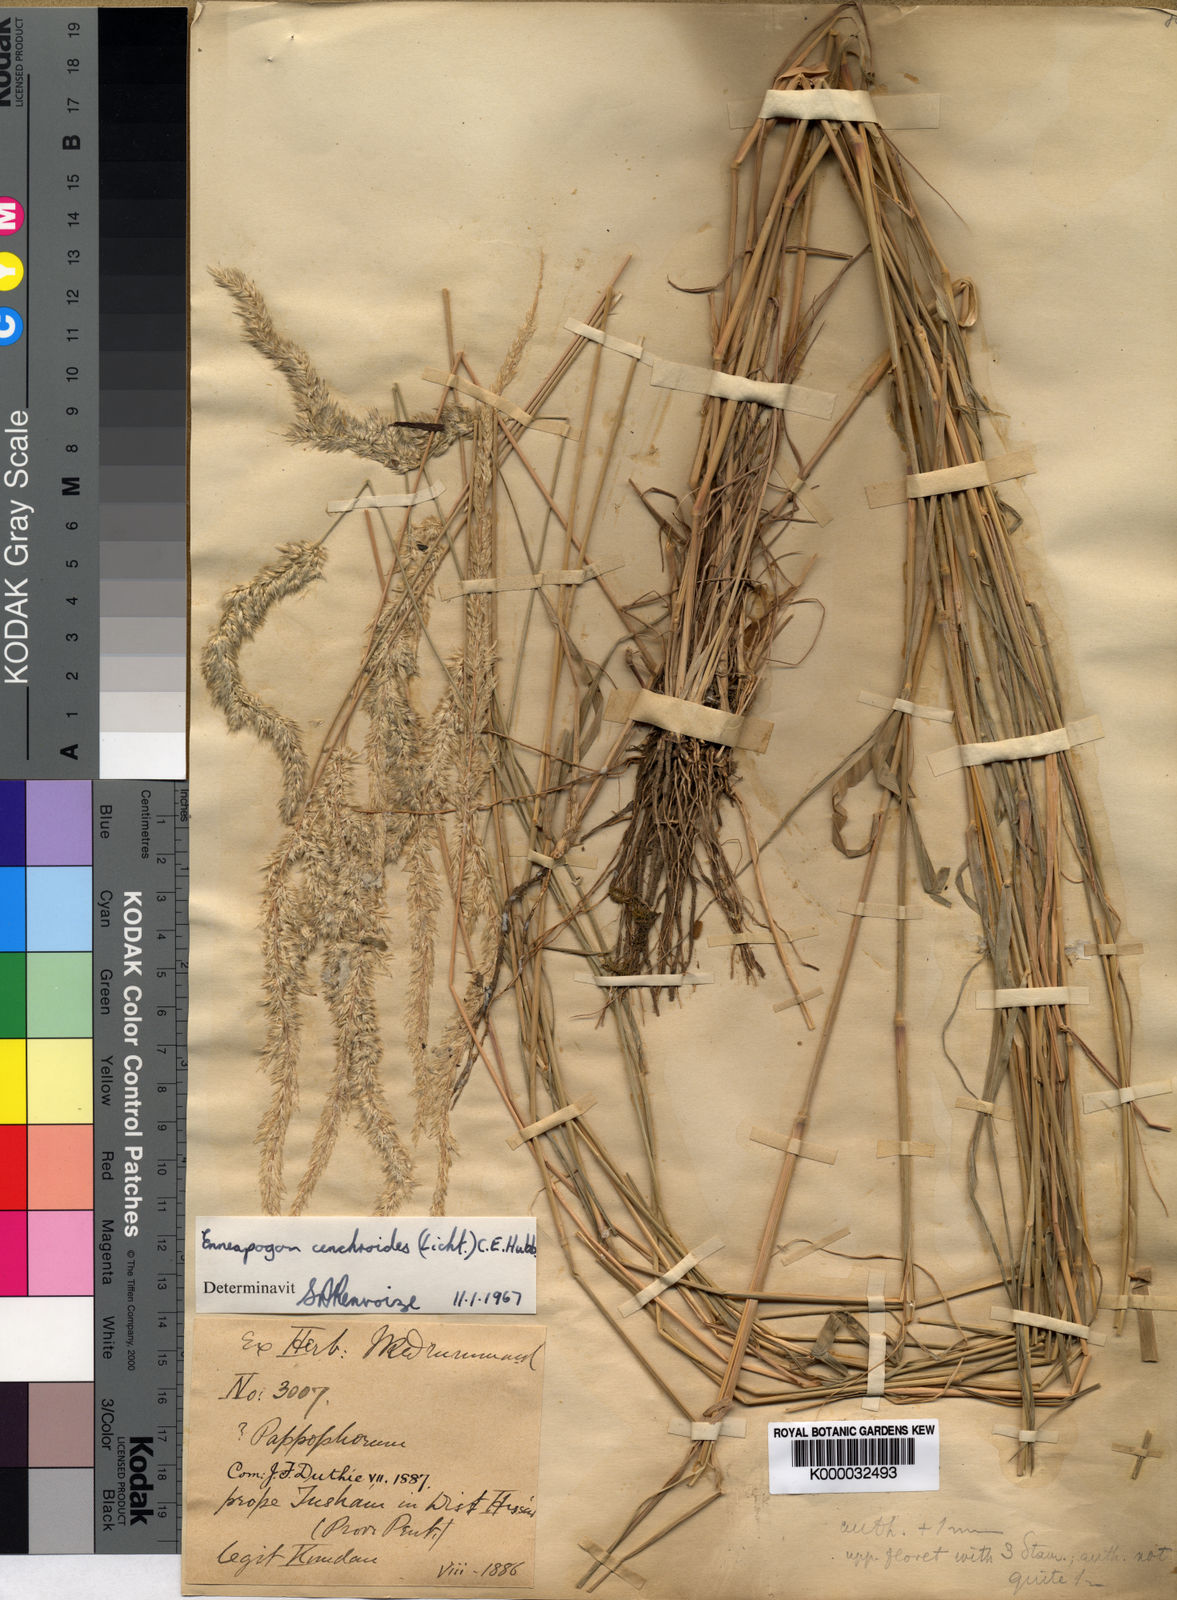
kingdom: Plantae
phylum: Tracheophyta
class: Liliopsida
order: Poales
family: Poaceae
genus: Enneapogon
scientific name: Enneapogon cenchroides
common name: Soft feather pappusgrass
